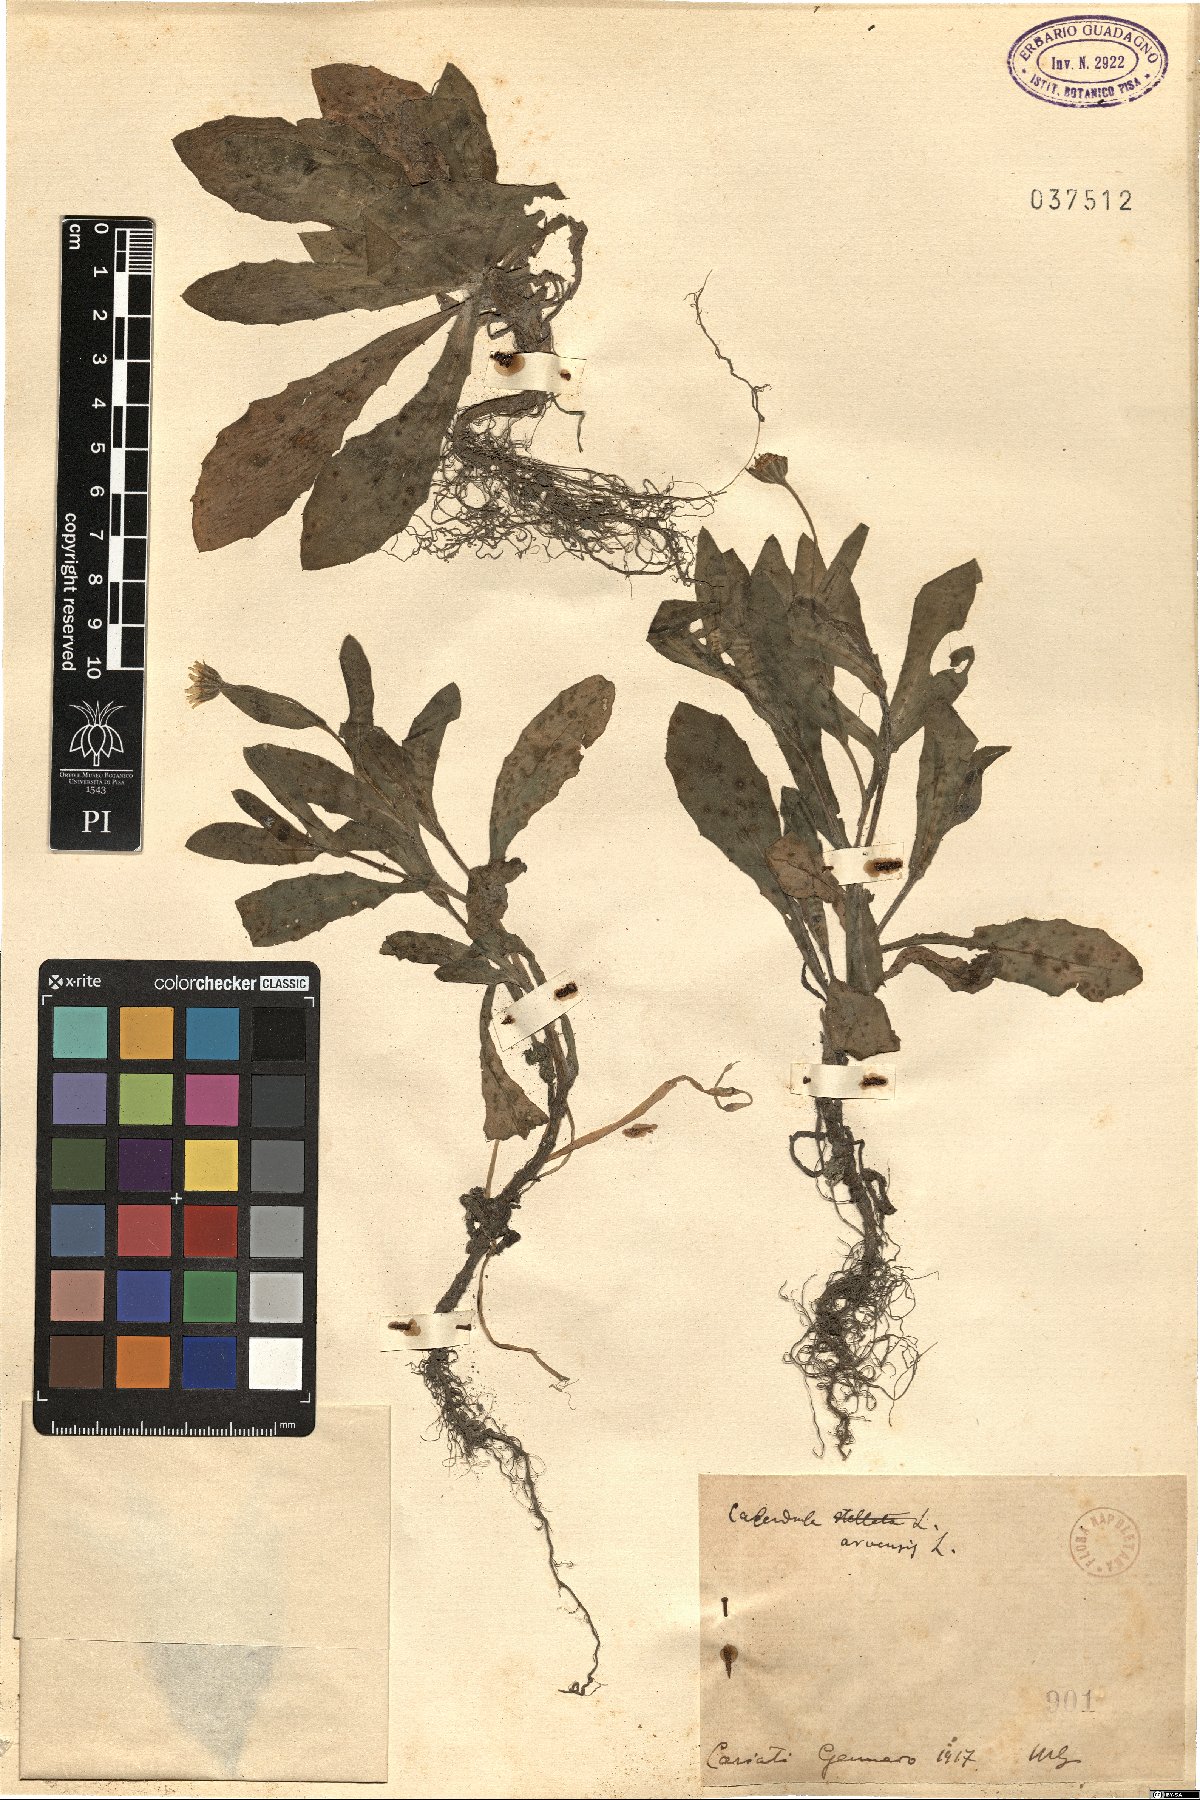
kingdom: Plantae
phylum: Tracheophyta
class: Magnoliopsida
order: Asterales
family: Asteraceae
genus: Calendula
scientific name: Calendula arvensis
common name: Field marigold
